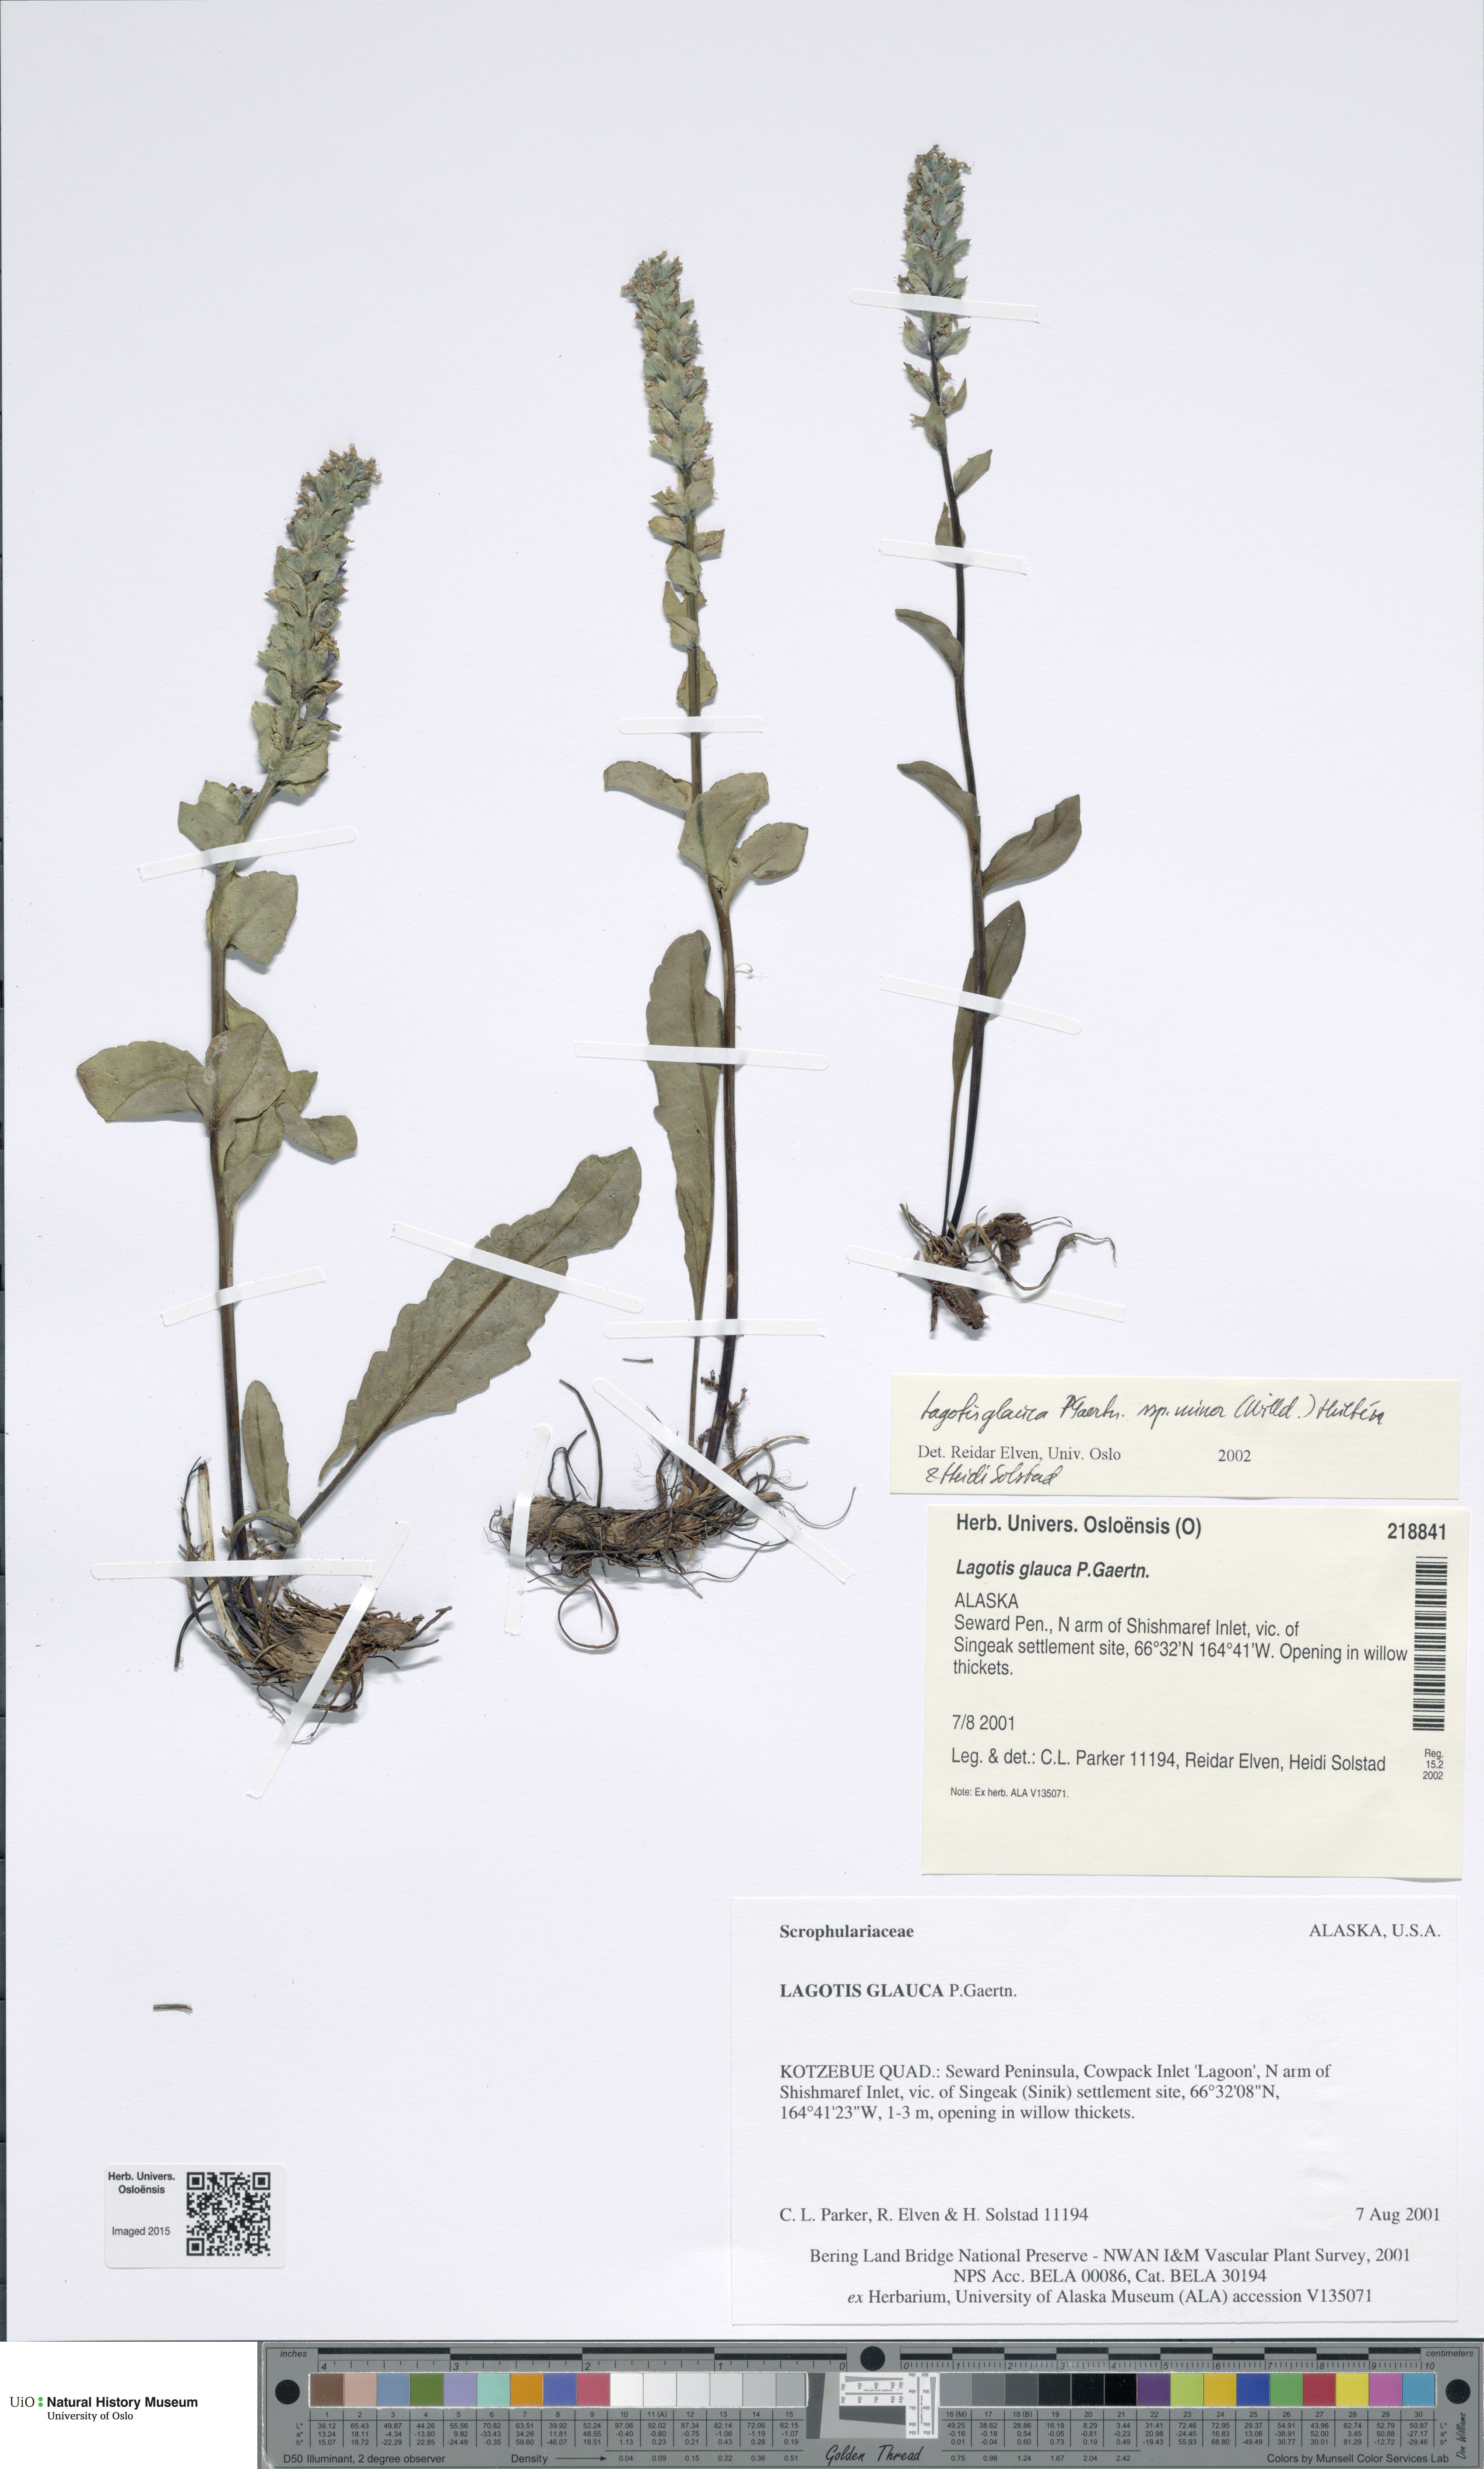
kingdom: Plantae
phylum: Tracheophyta
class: Magnoliopsida
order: Lamiales
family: Plantaginaceae
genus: Lagotis
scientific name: Lagotis glauca
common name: Glaucous weaselsnout
